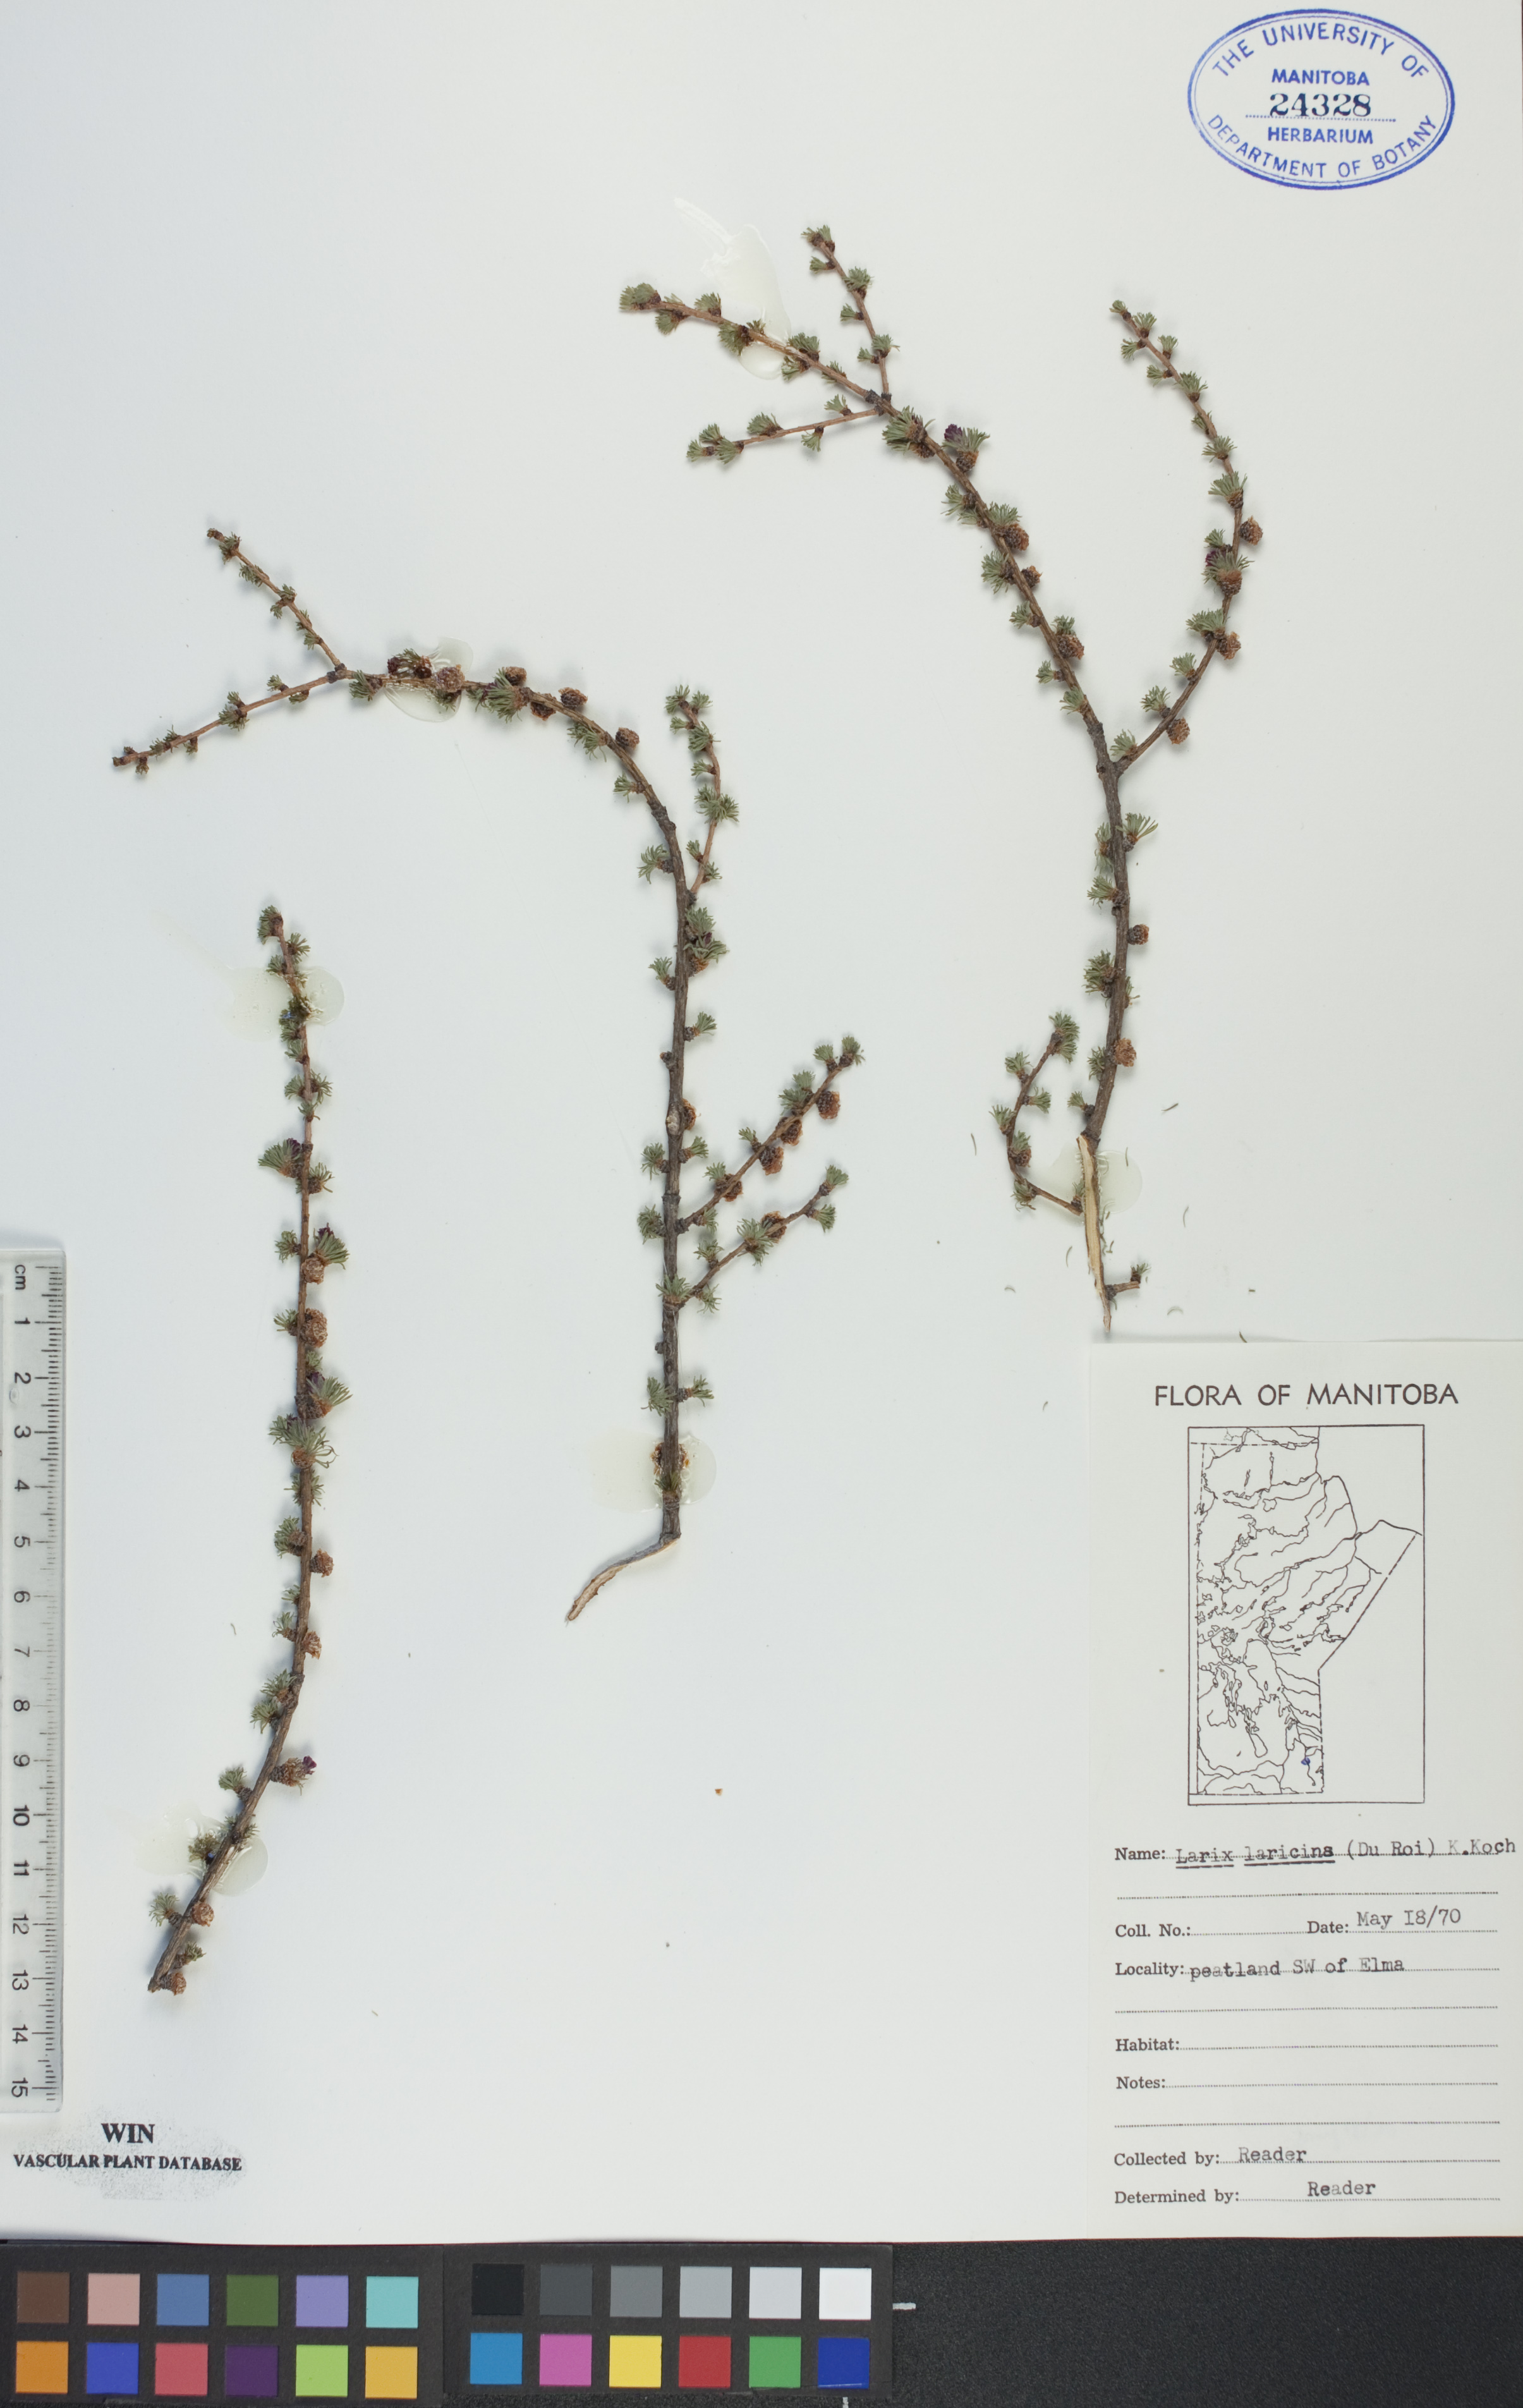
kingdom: Plantae
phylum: Tracheophyta
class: Pinopsida
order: Pinales
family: Pinaceae
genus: Larix
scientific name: Larix laricina
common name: American larch
